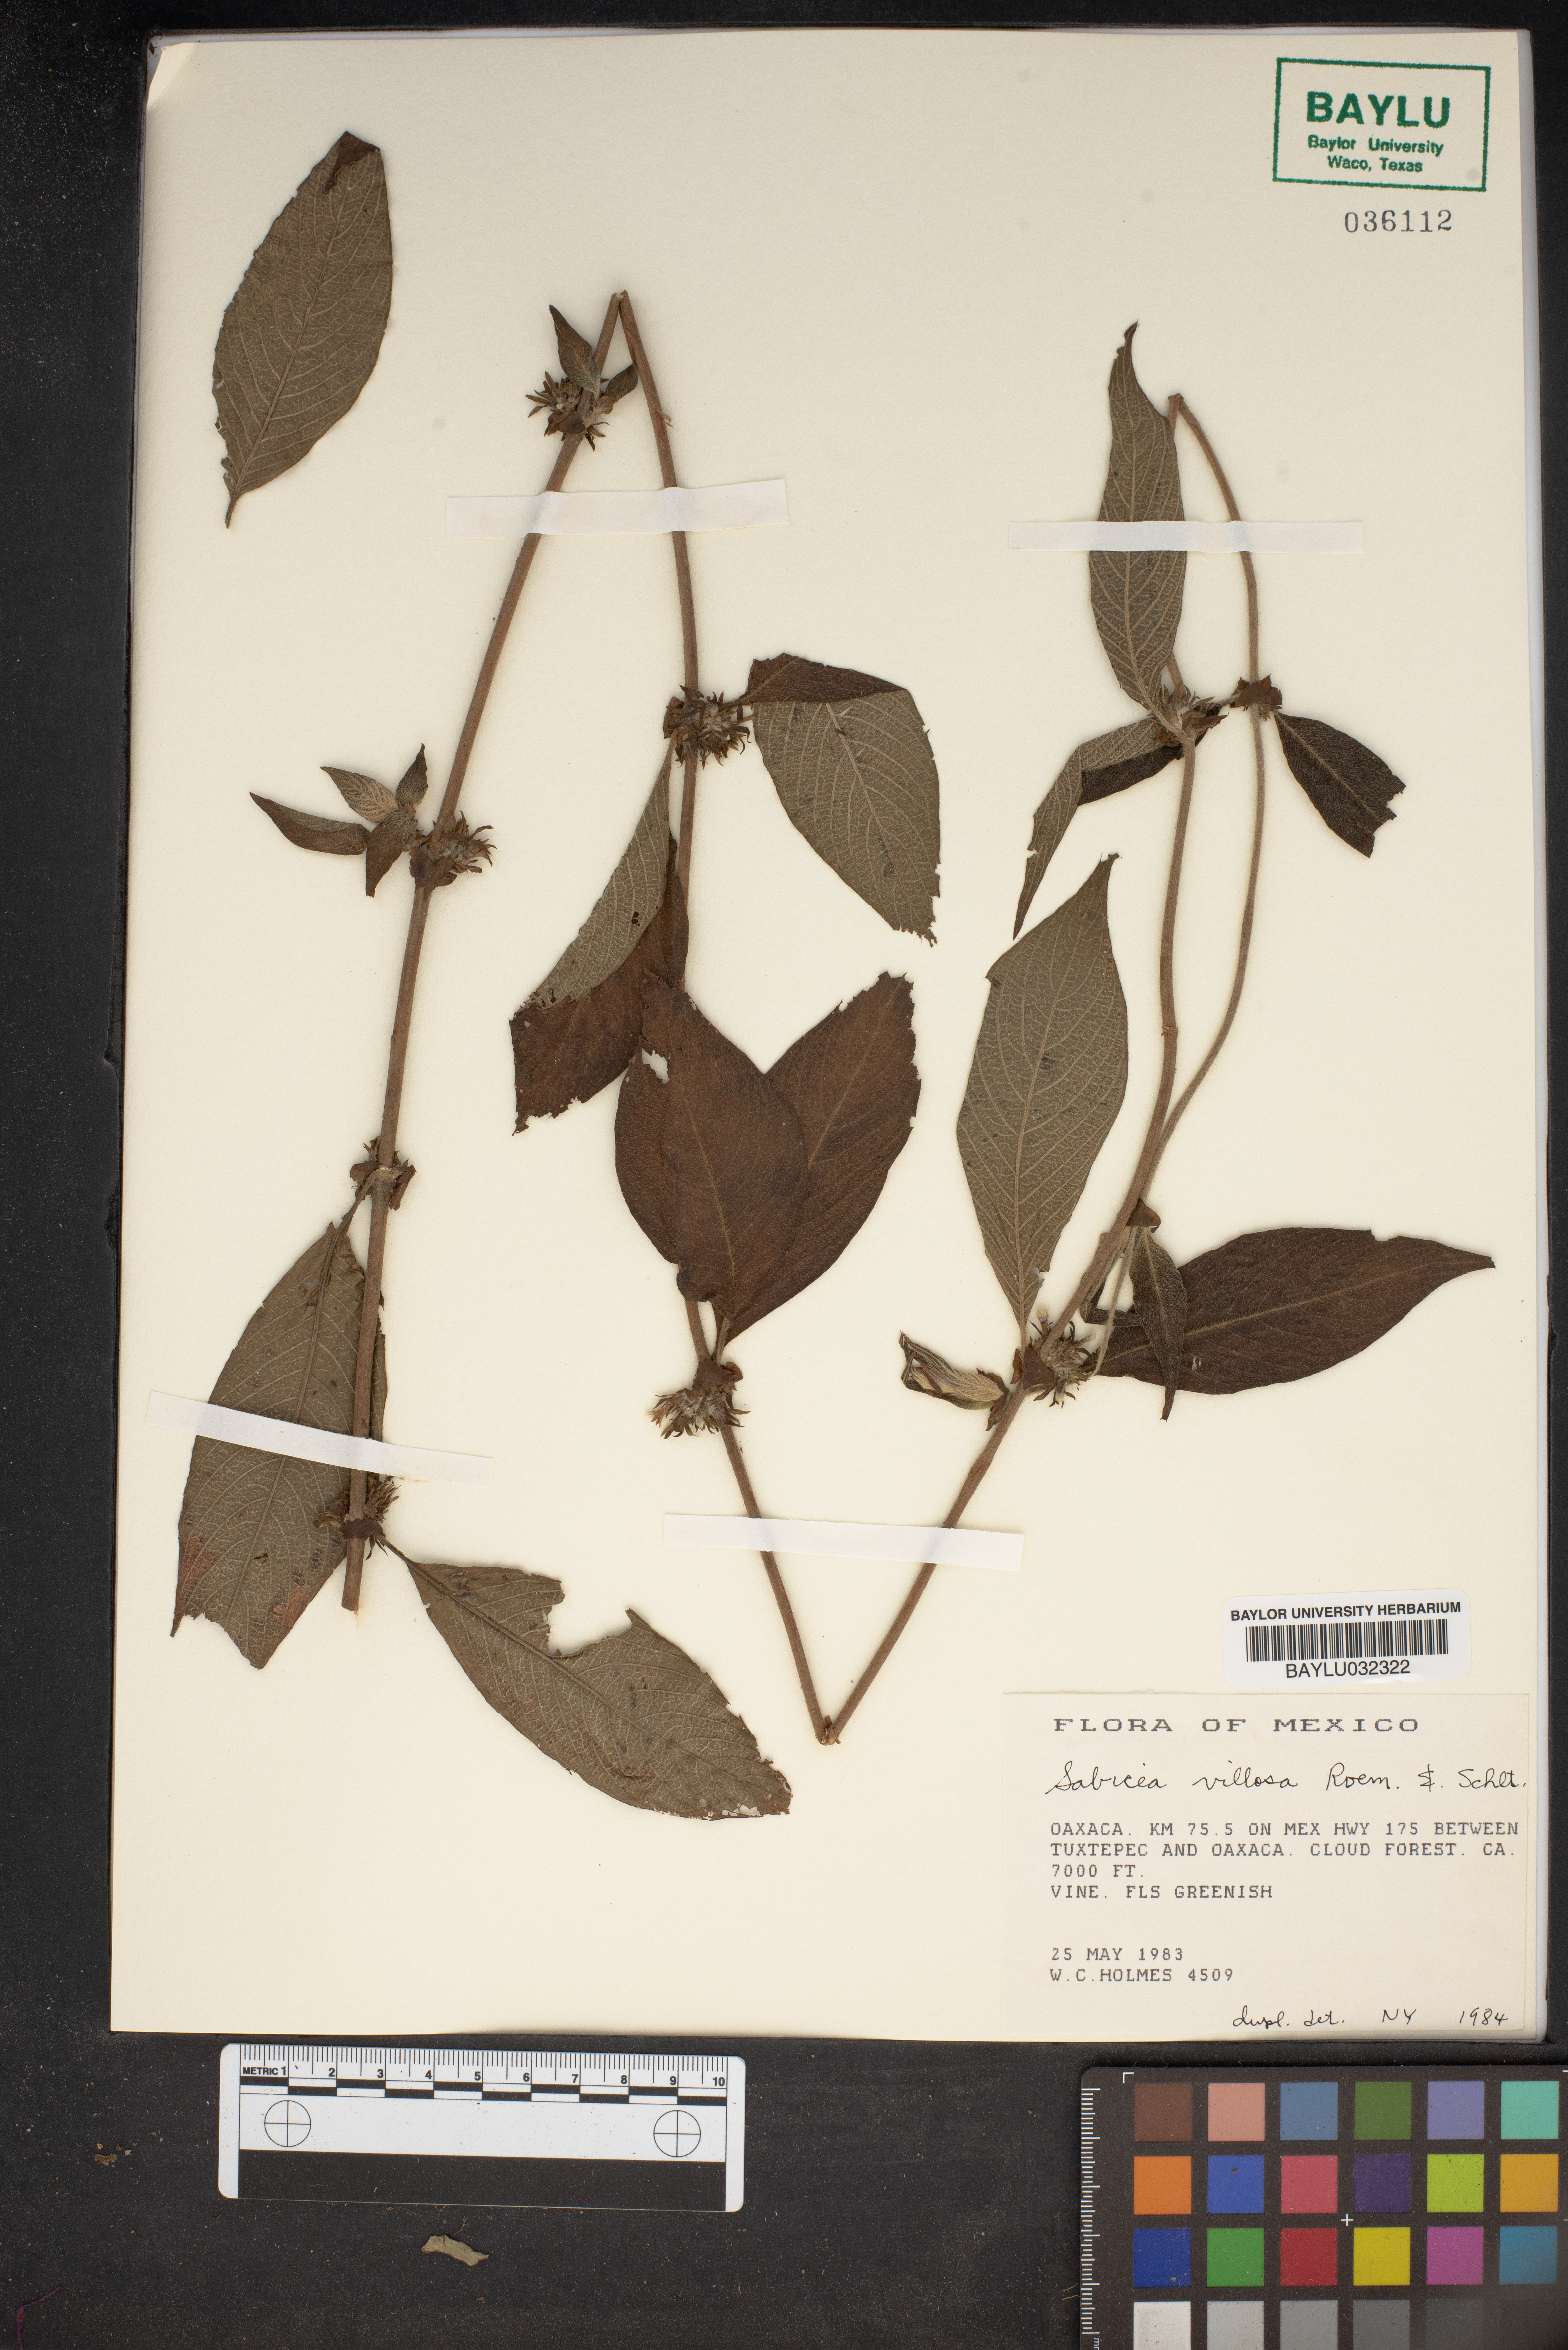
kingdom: Plantae
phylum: Tracheophyta
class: Magnoliopsida
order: Gentianales
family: Rubiaceae
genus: Sabicea
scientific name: Sabicea villosa
